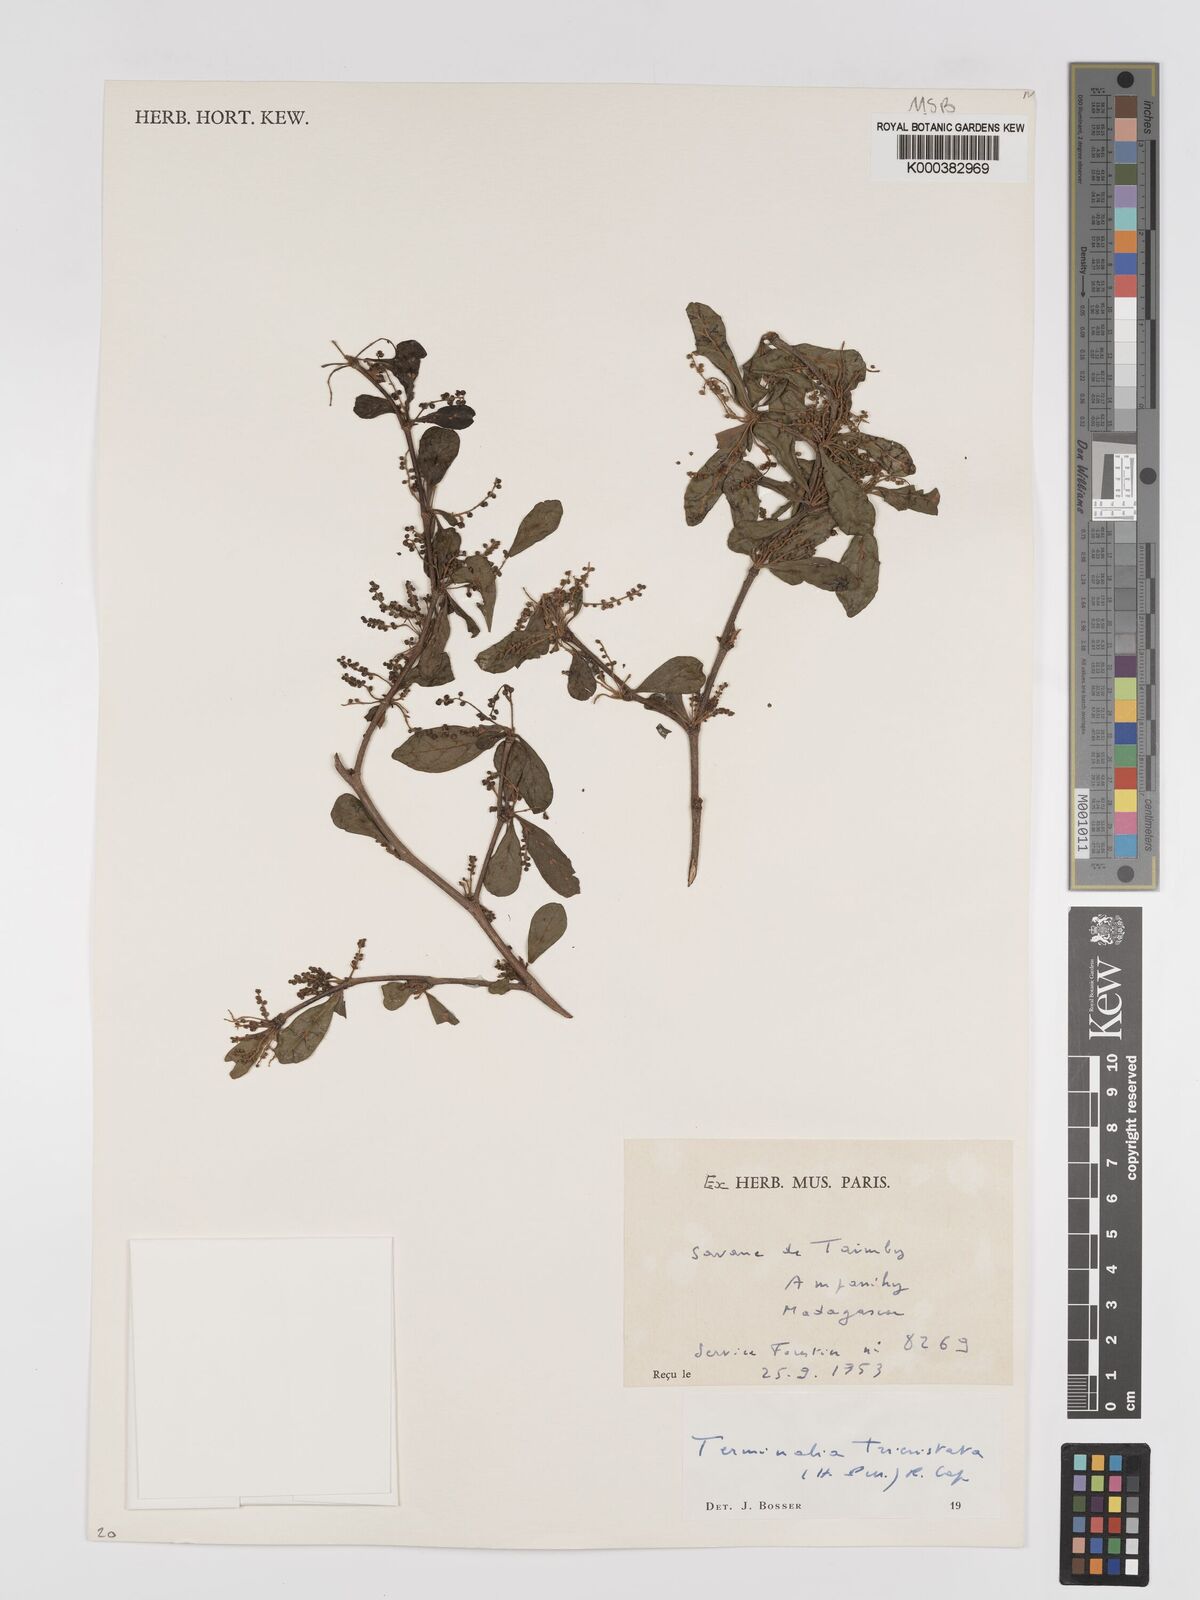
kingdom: Plantae
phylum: Tracheophyta
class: Magnoliopsida
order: Myrtales
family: Combretaceae
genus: Terminalia
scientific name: Terminalia
